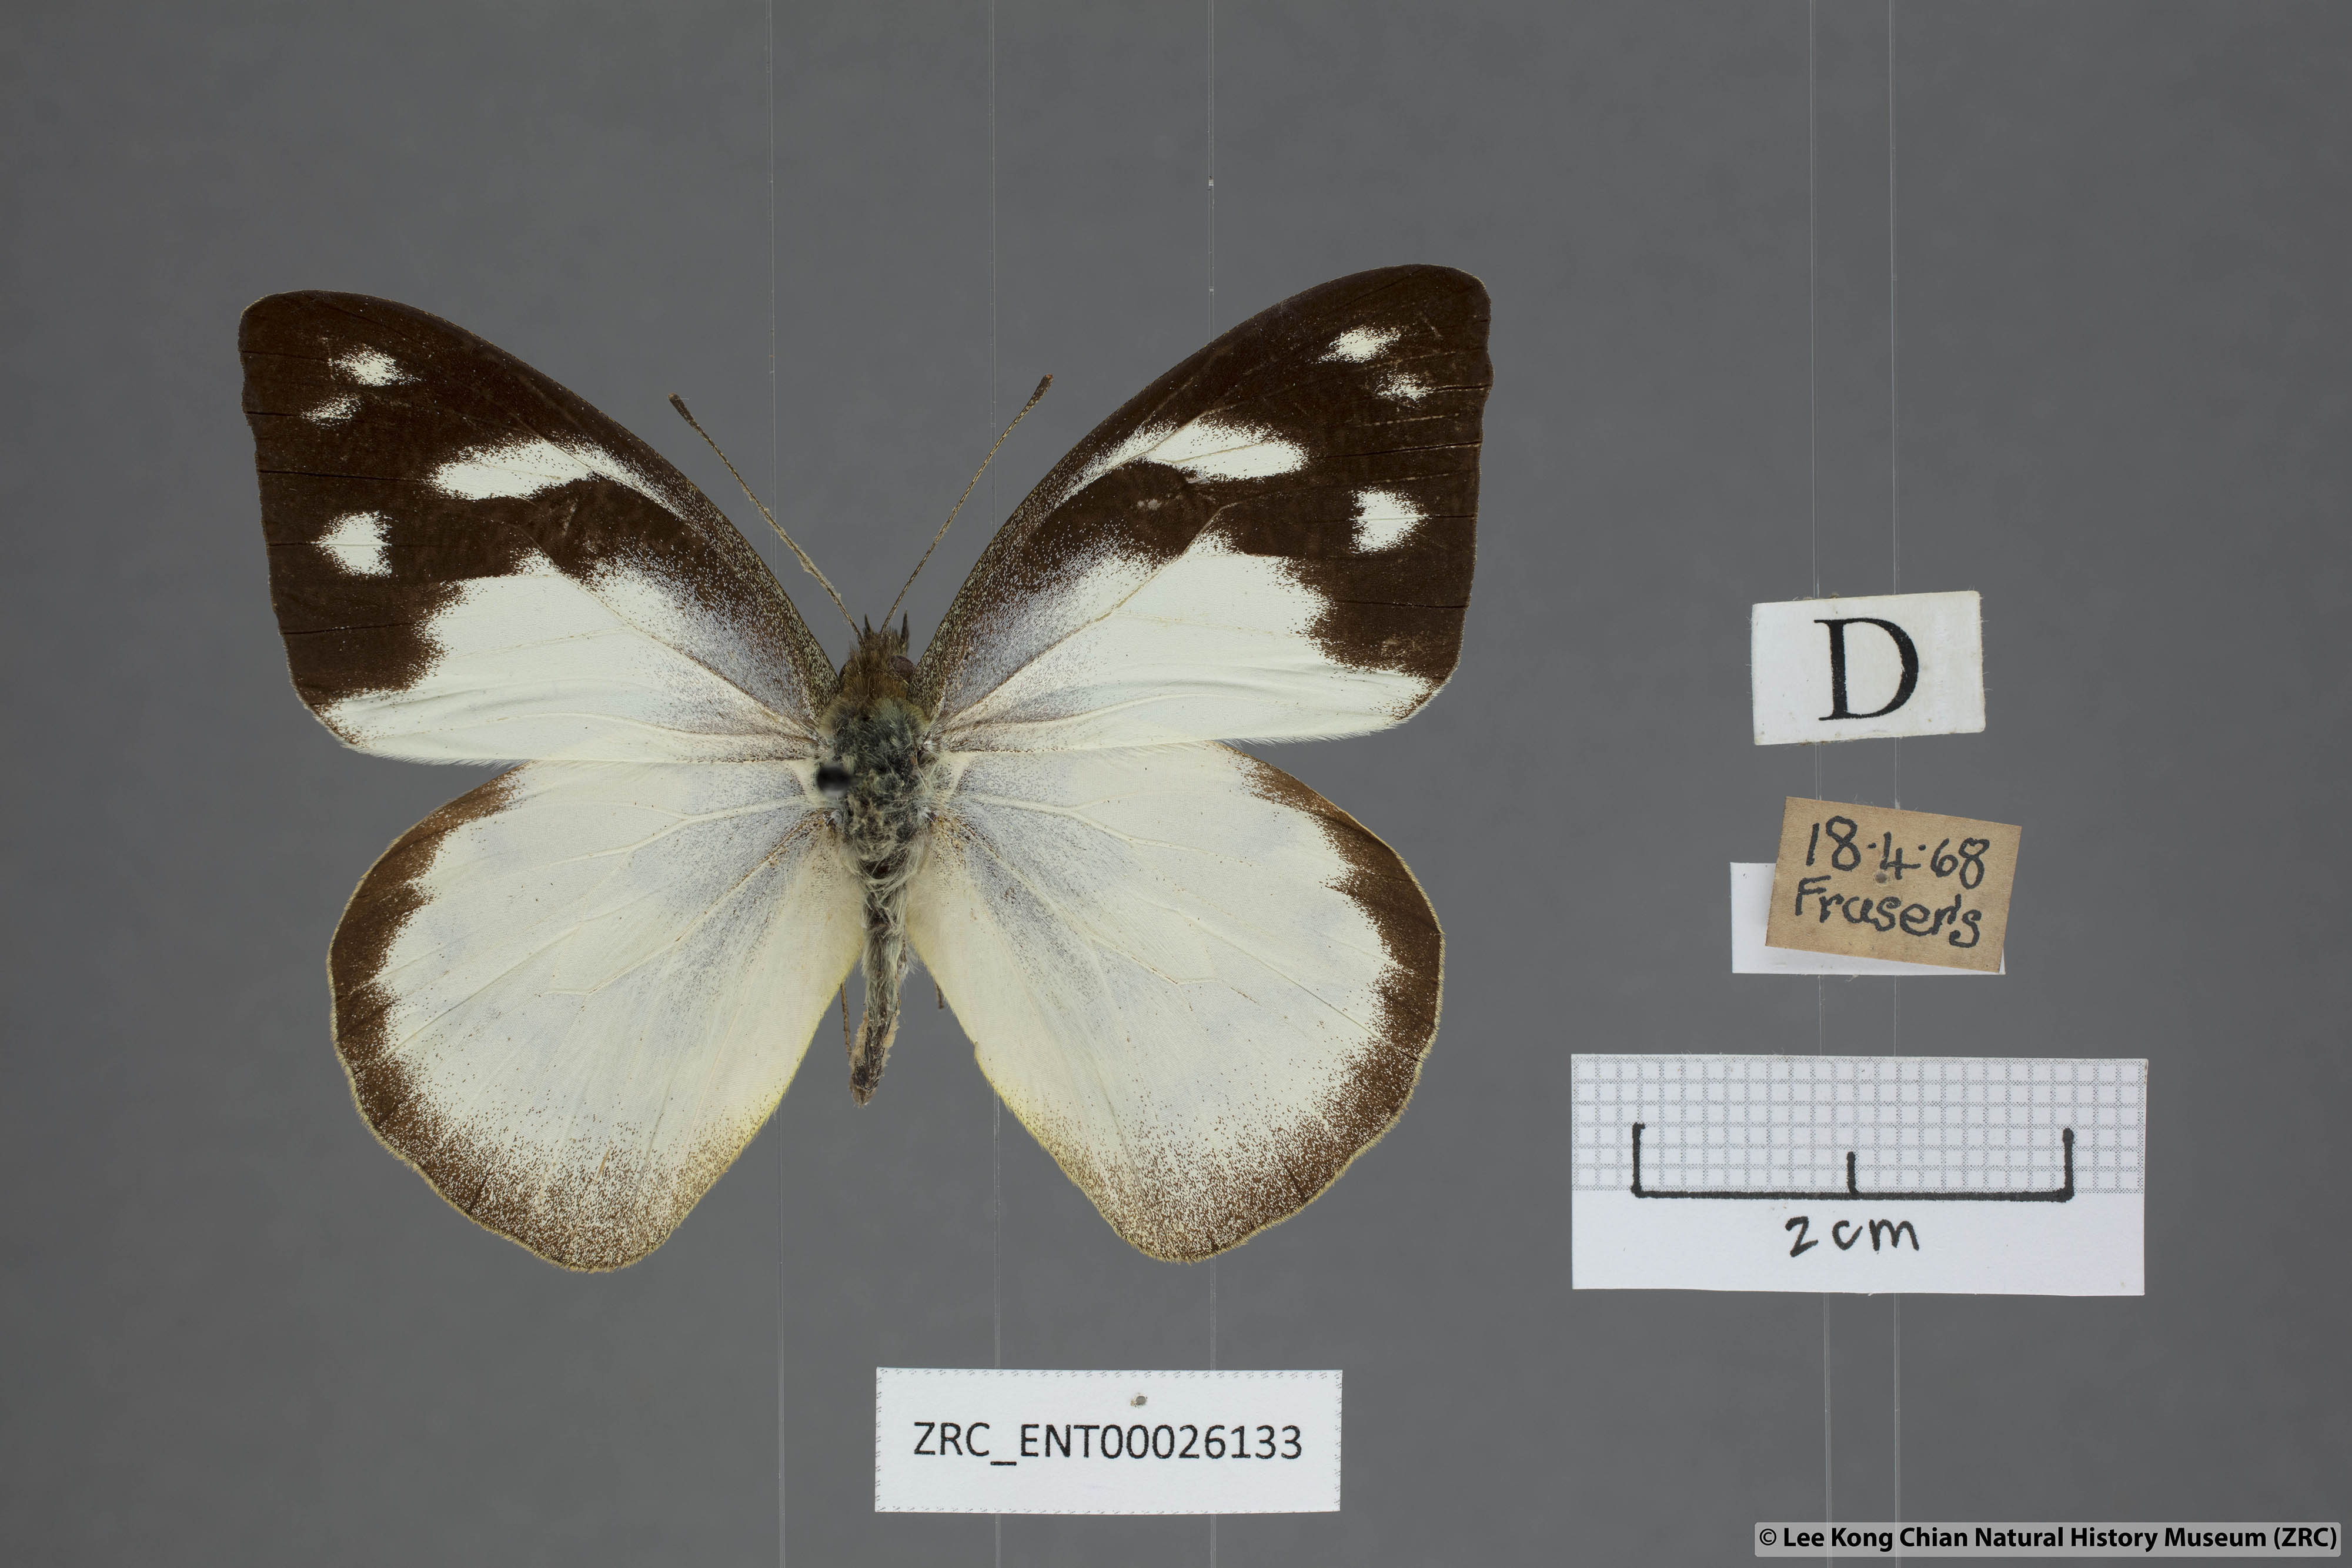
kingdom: Animalia
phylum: Arthropoda
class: Insecta
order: Lepidoptera
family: Pieridae
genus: Appias
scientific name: Appias pandione
